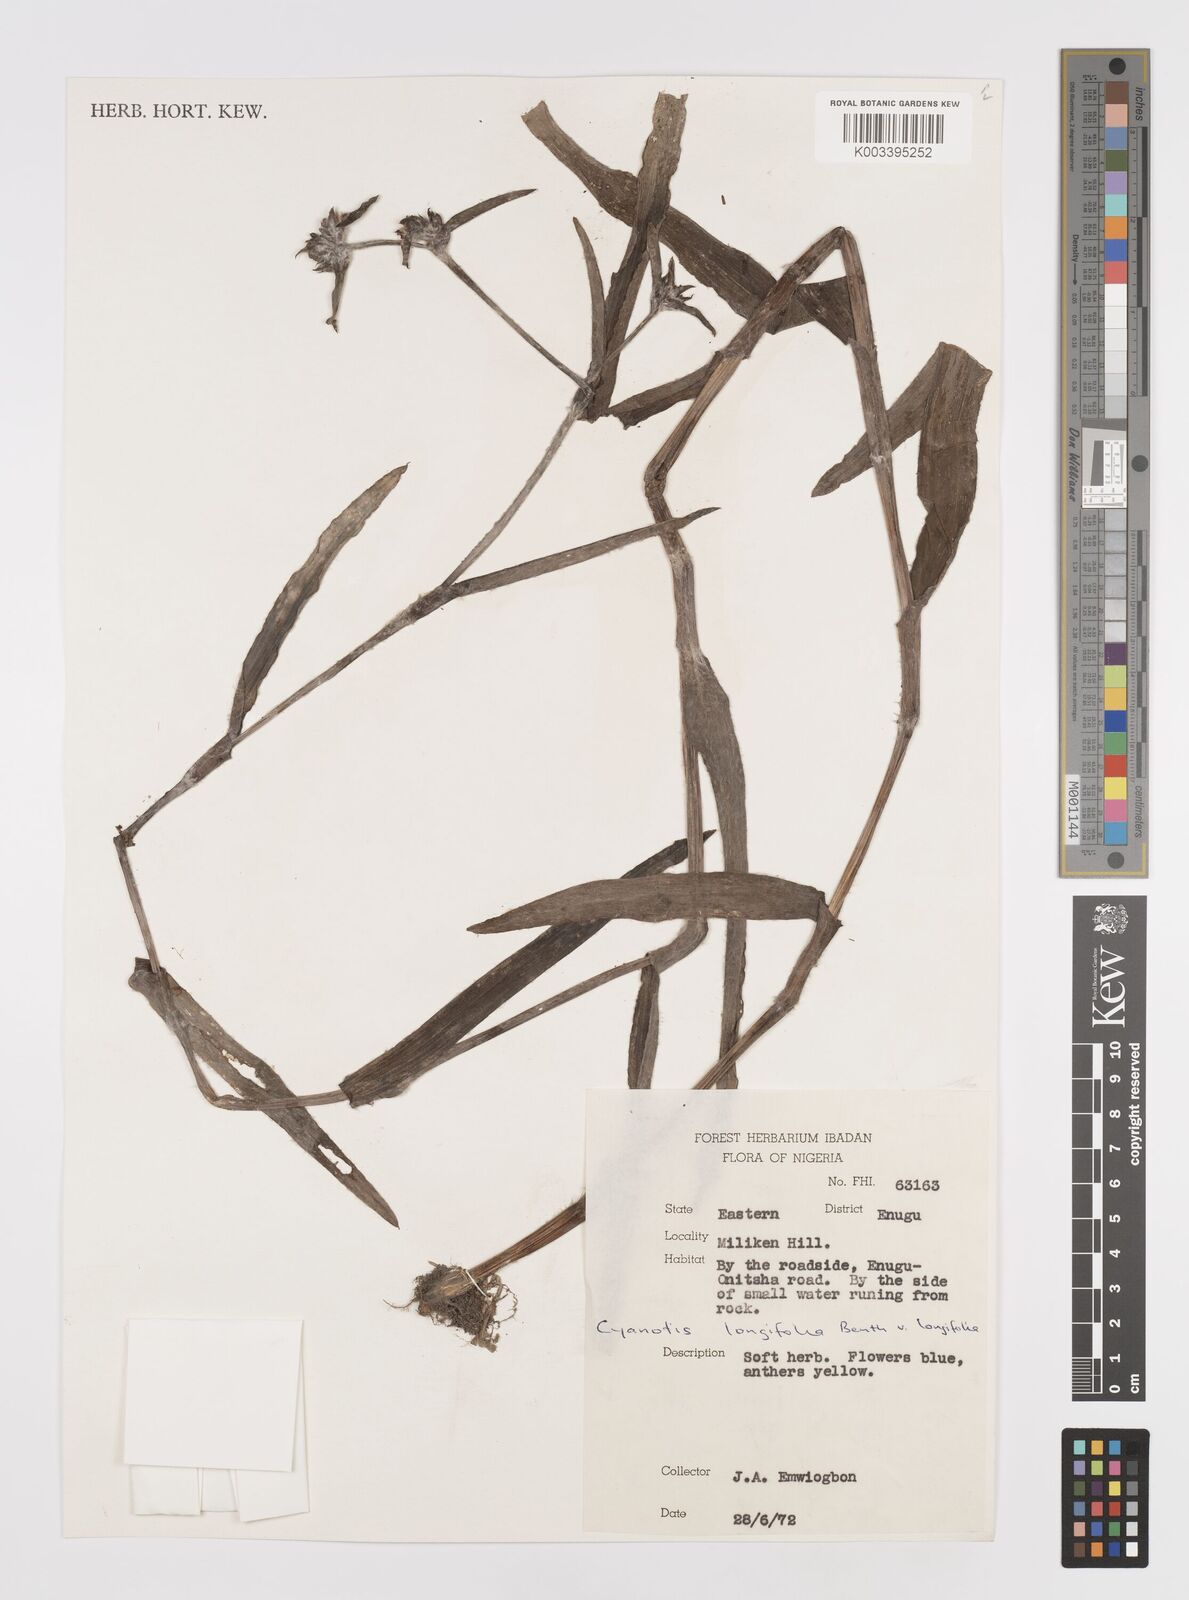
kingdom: Plantae
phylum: Tracheophyta
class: Liliopsida
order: Commelinales
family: Commelinaceae
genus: Cyanotis
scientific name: Cyanotis longifolia
